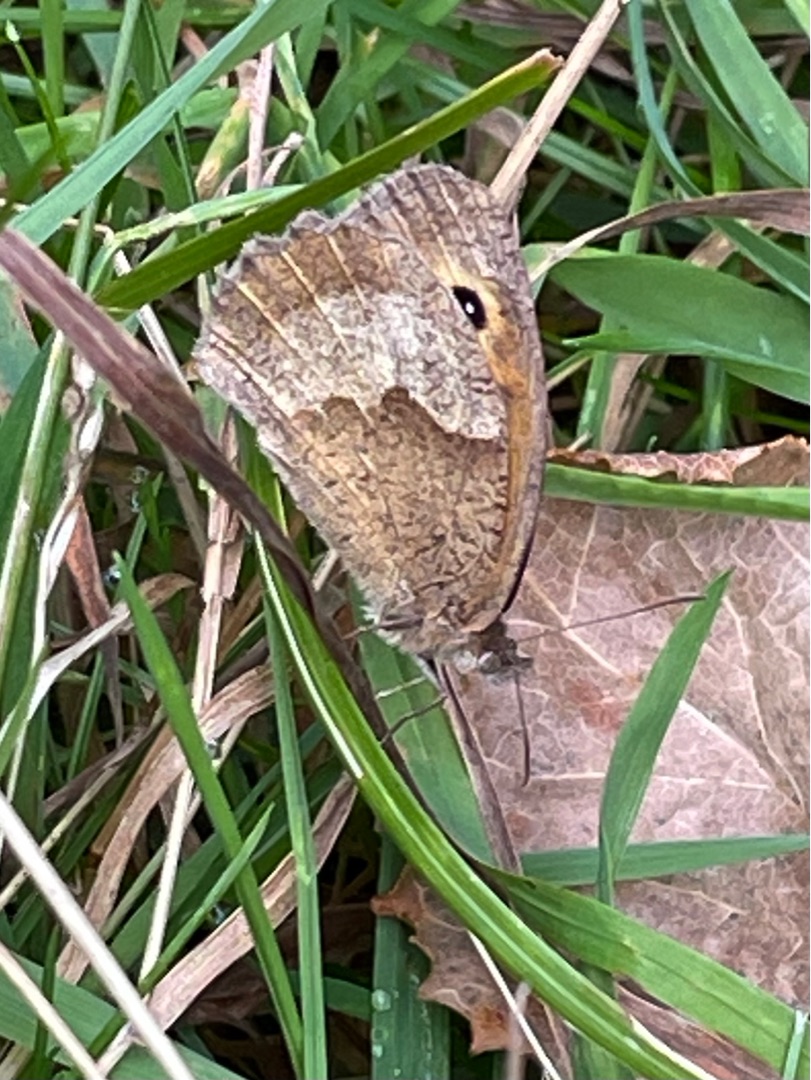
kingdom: Animalia
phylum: Arthropoda
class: Insecta
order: Lepidoptera
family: Nymphalidae
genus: Maniola
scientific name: Maniola jurtina
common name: Græsrandøje
